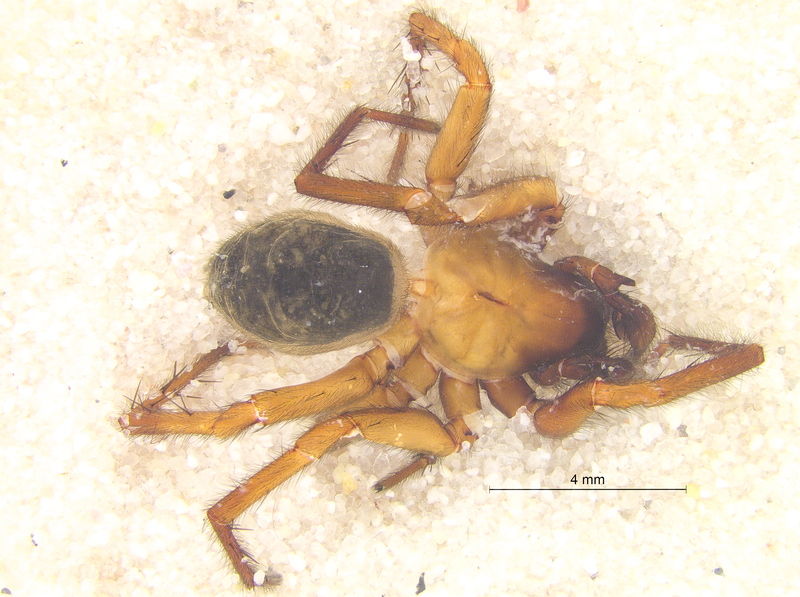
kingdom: Animalia
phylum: Arthropoda
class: Arachnida
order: Araneae
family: Agelenidae
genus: Coelotes
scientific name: Coelotes terrestris
